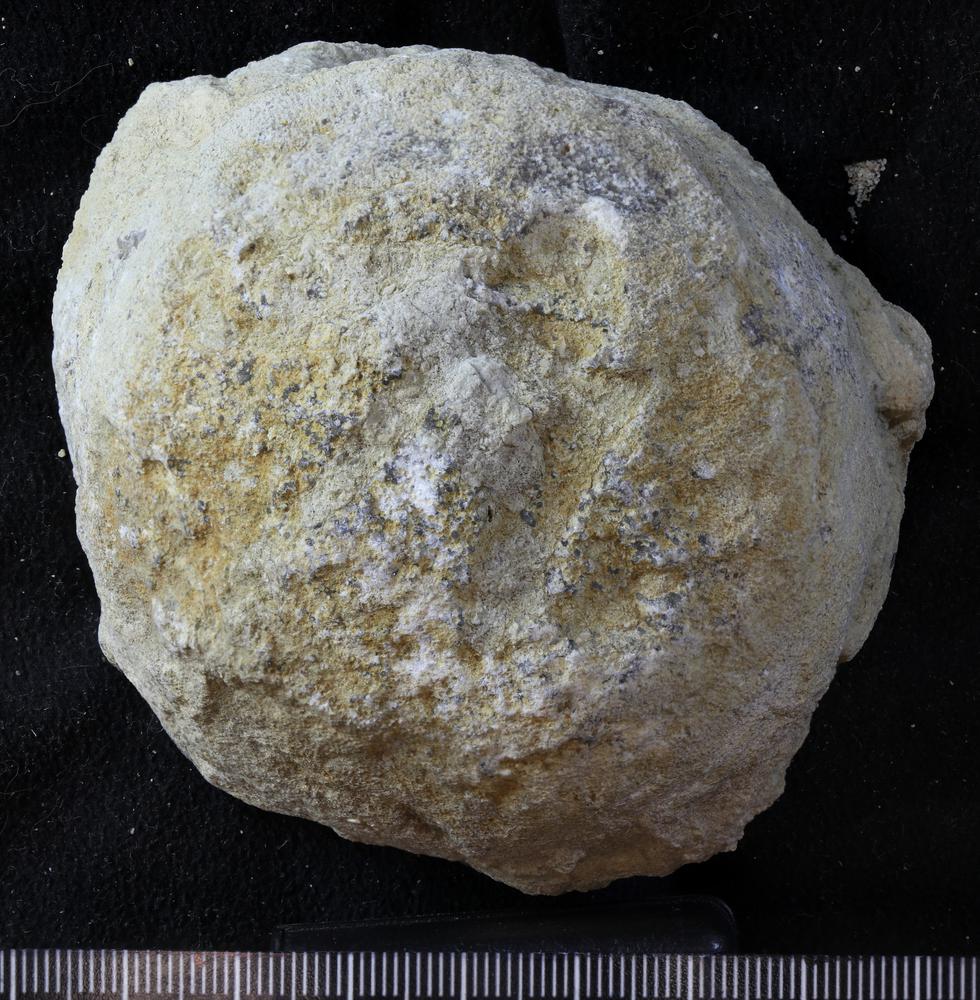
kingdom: Animalia
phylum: Bryozoa
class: Stenolaemata
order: Trepostomatida
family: Diplotrypidae
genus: Diplotrypa
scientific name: Diplotrypa petropolitana
